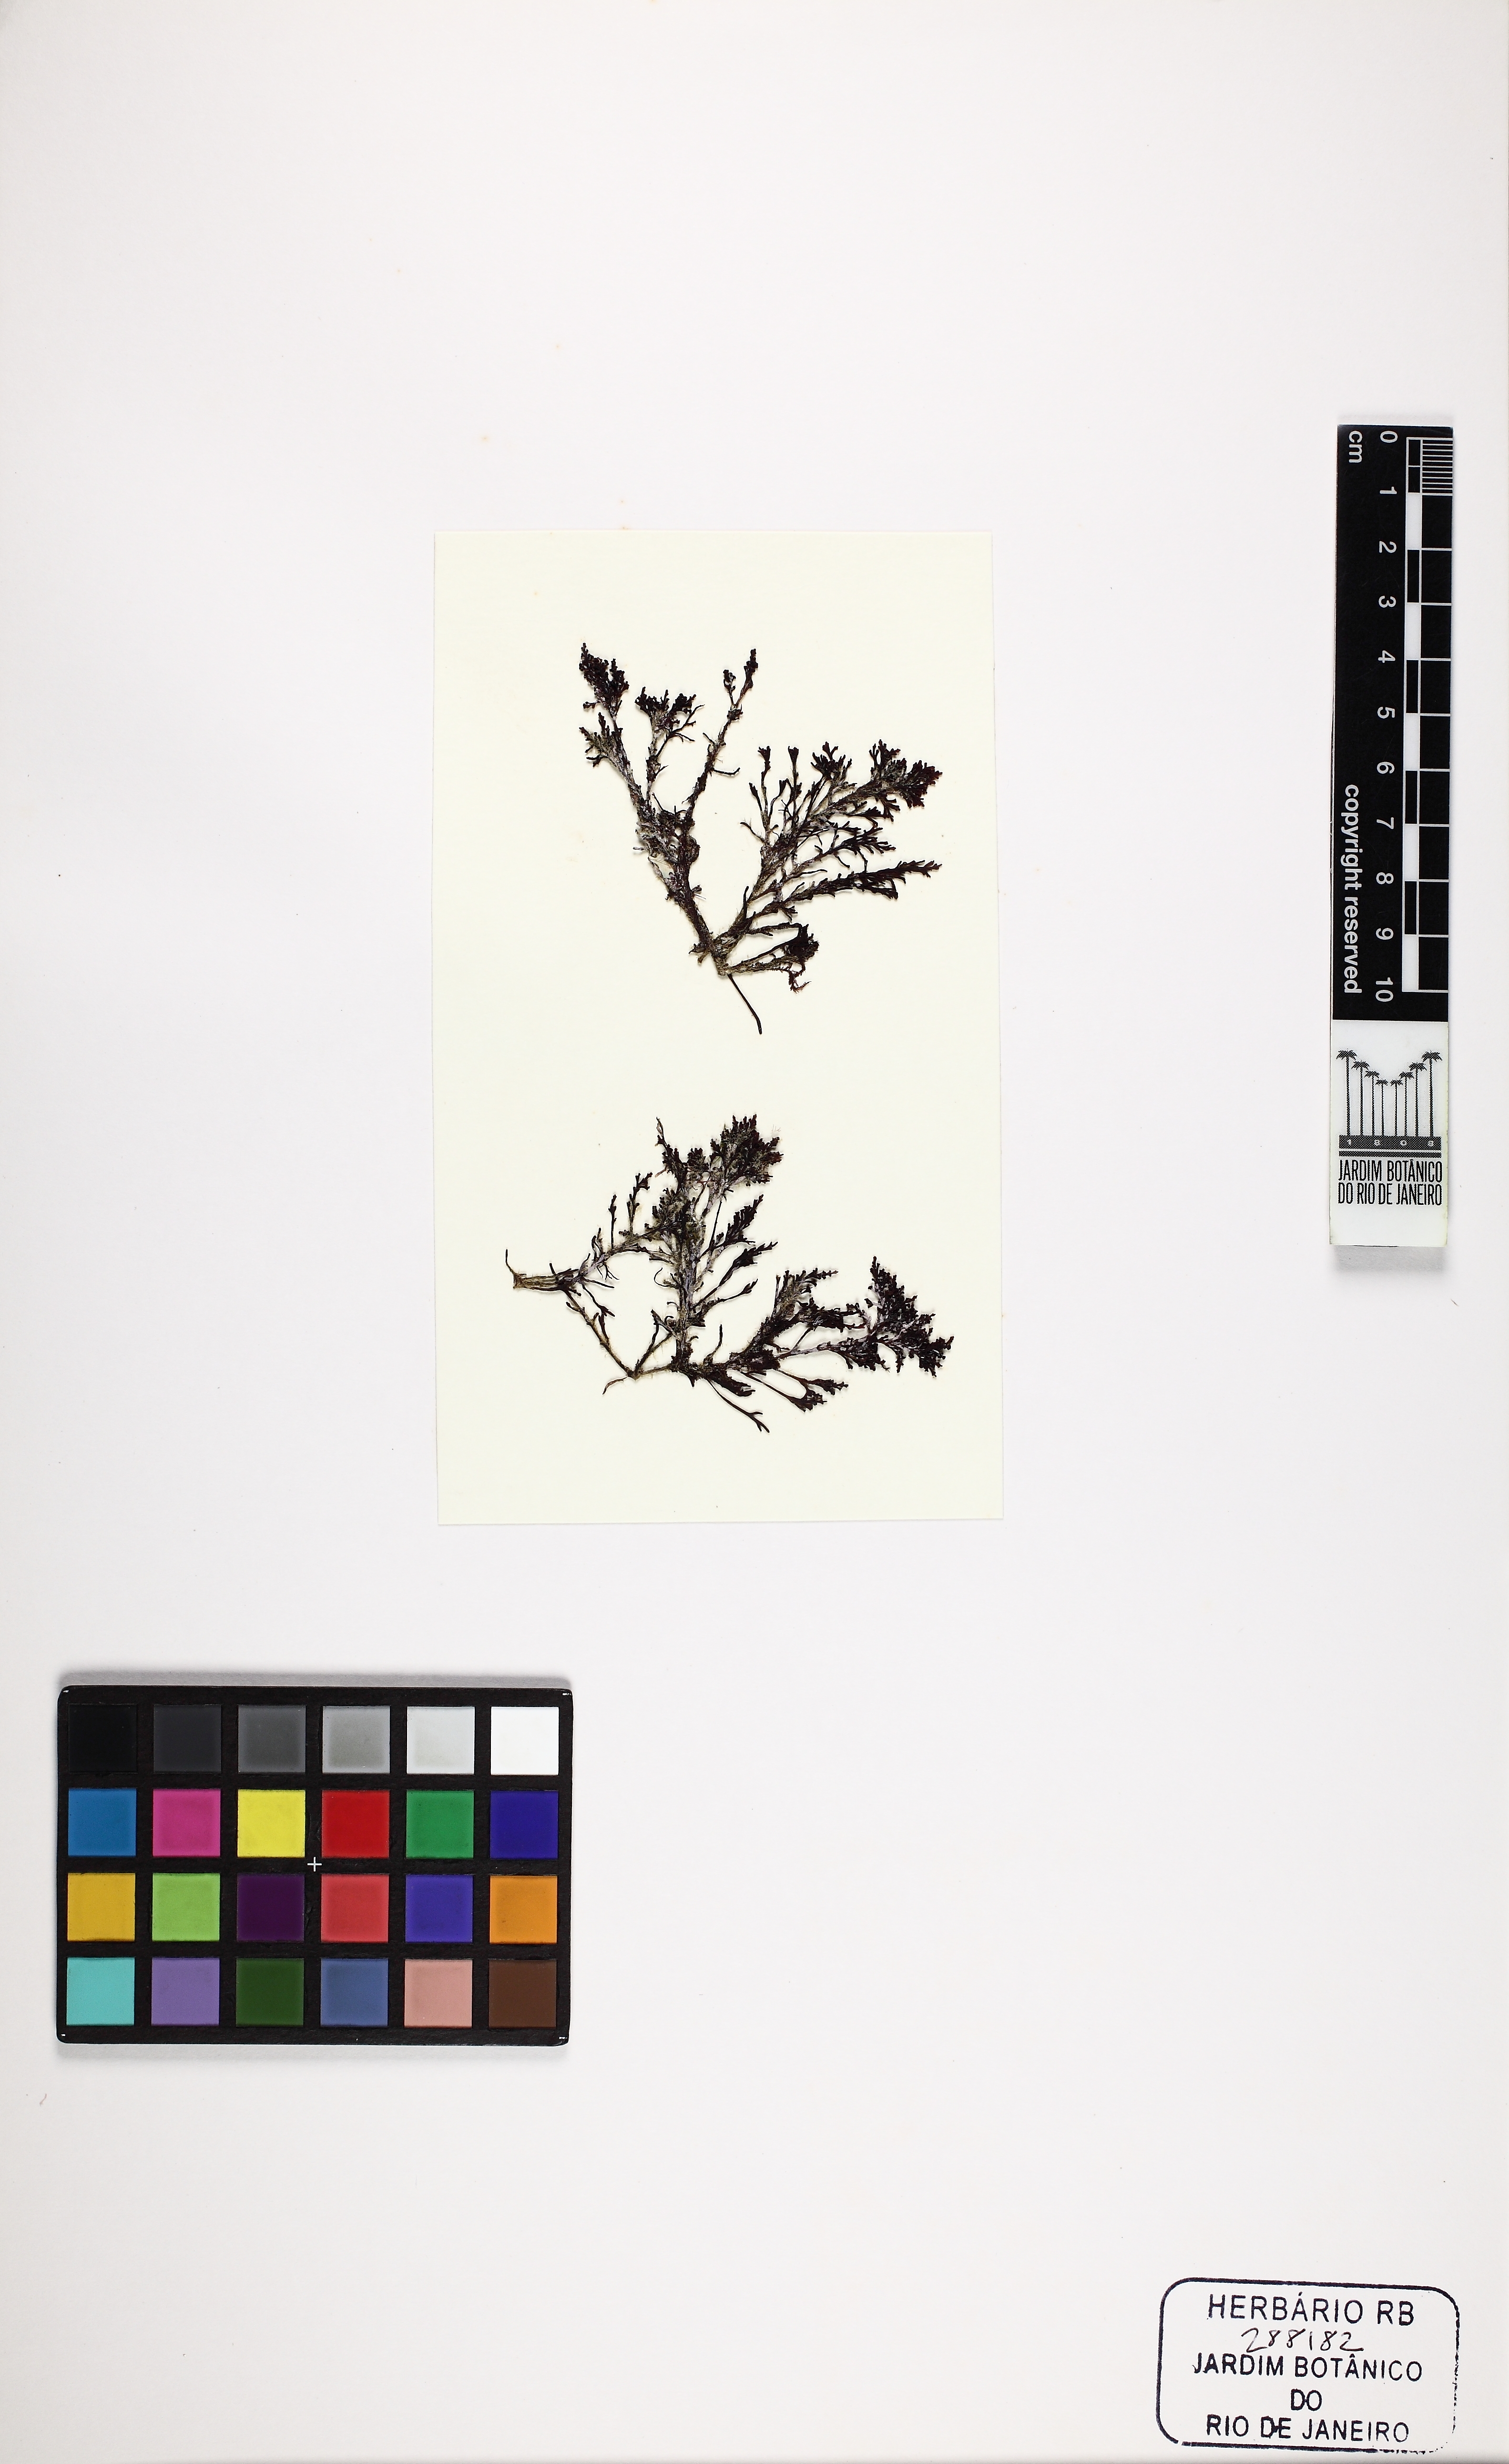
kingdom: Plantae
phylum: Rhodophyta
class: Florideophyceae
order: Ceramiales
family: Rhodomelaceae
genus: Laurencia
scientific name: Laurencia
